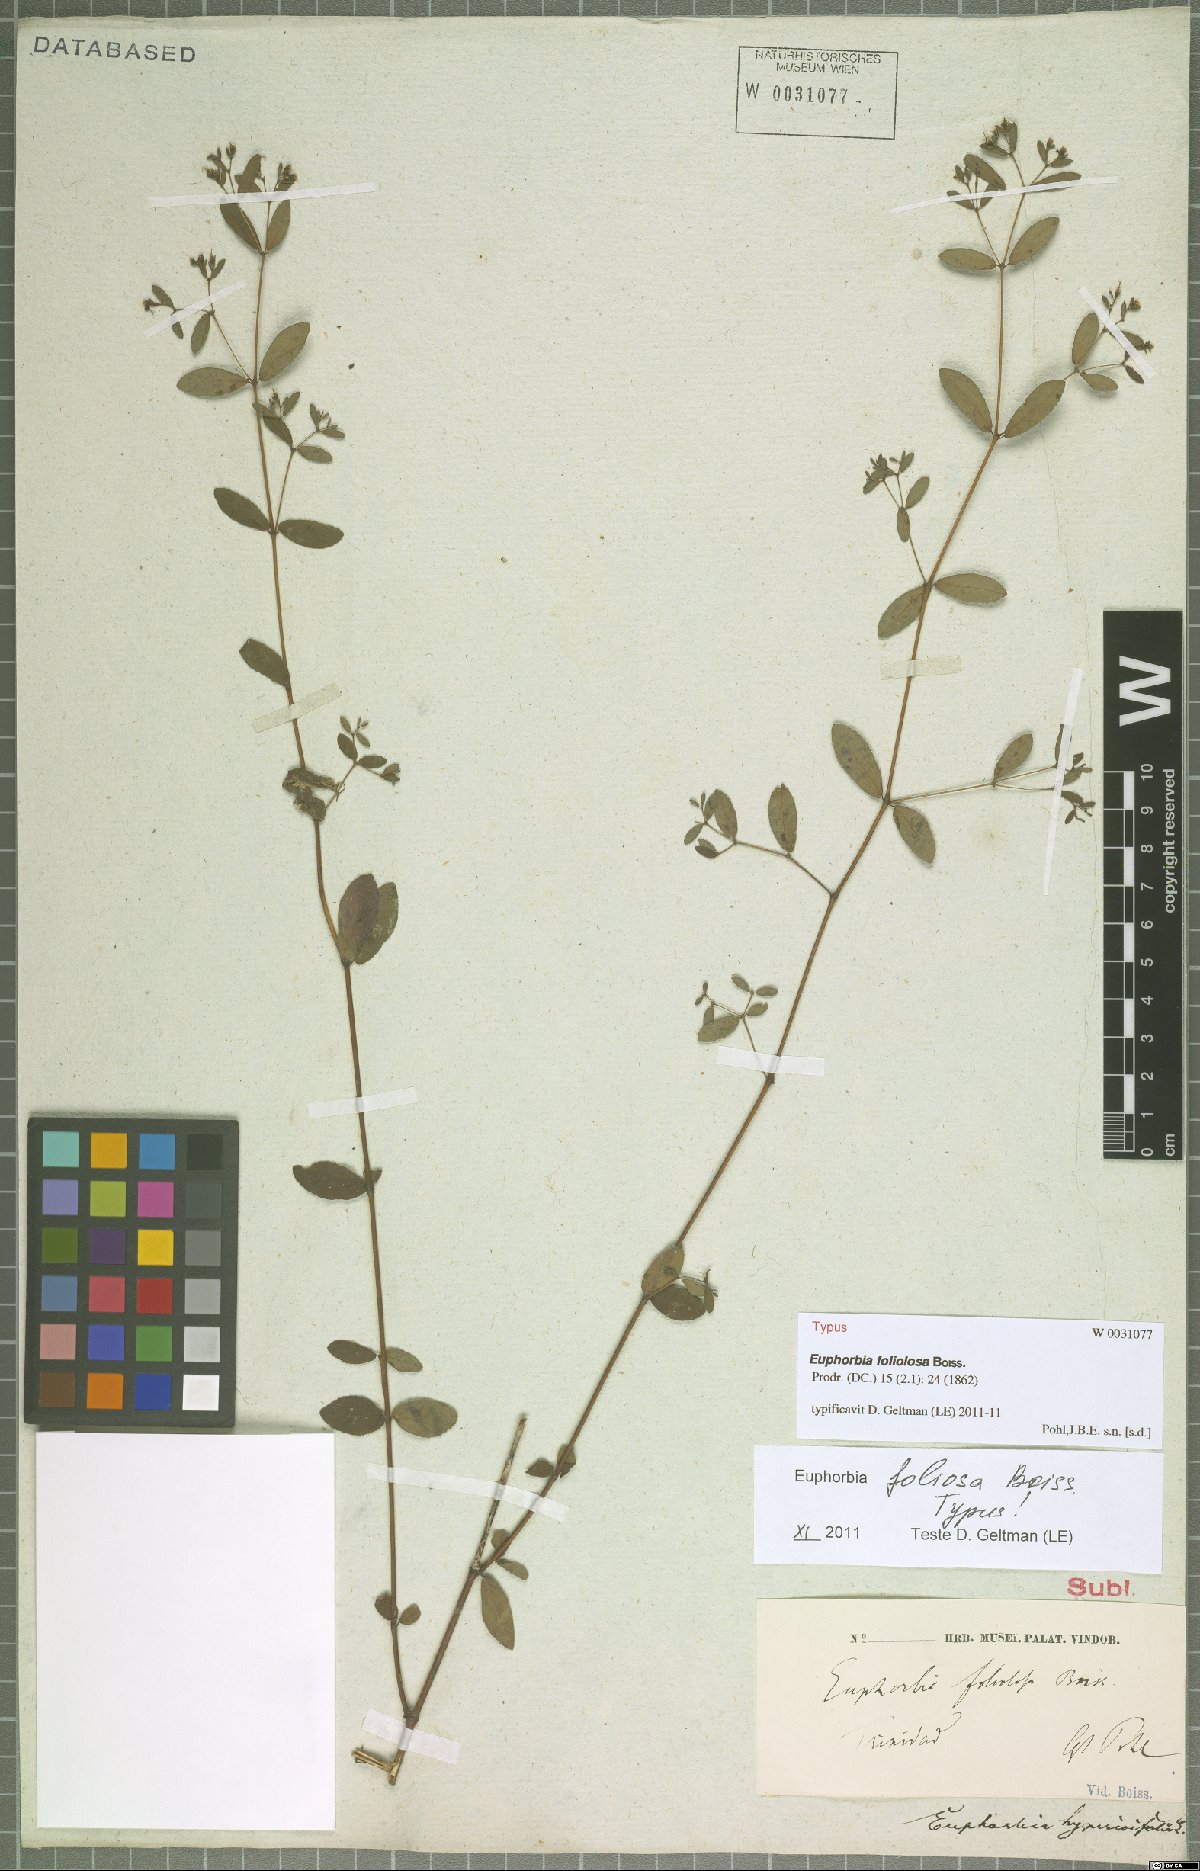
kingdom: Plantae
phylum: Tracheophyta
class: Magnoliopsida
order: Malpighiales
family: Euphorbiaceae
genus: Euphorbia
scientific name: Euphorbia foliolosa
